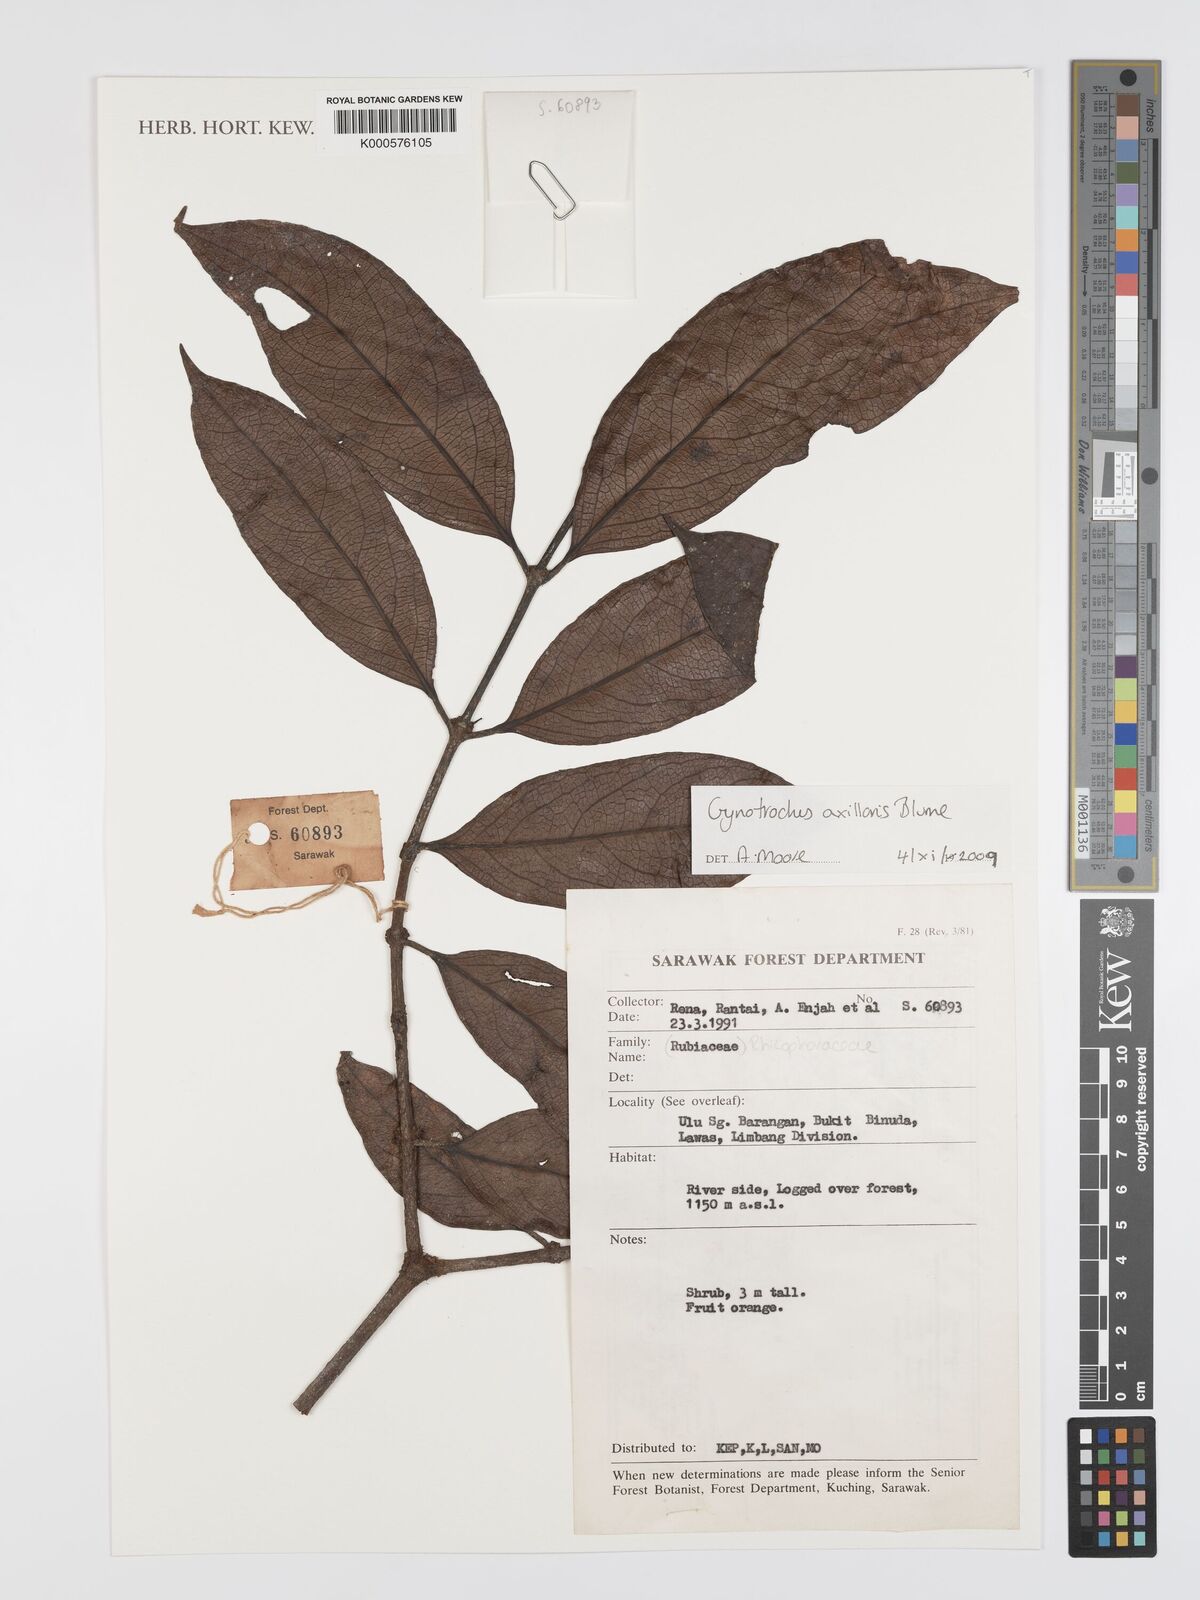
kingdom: Plantae
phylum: Tracheophyta
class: Magnoliopsida
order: Malpighiales
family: Rhizophoraceae
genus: Gynotroches
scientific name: Gynotroches axillaris
